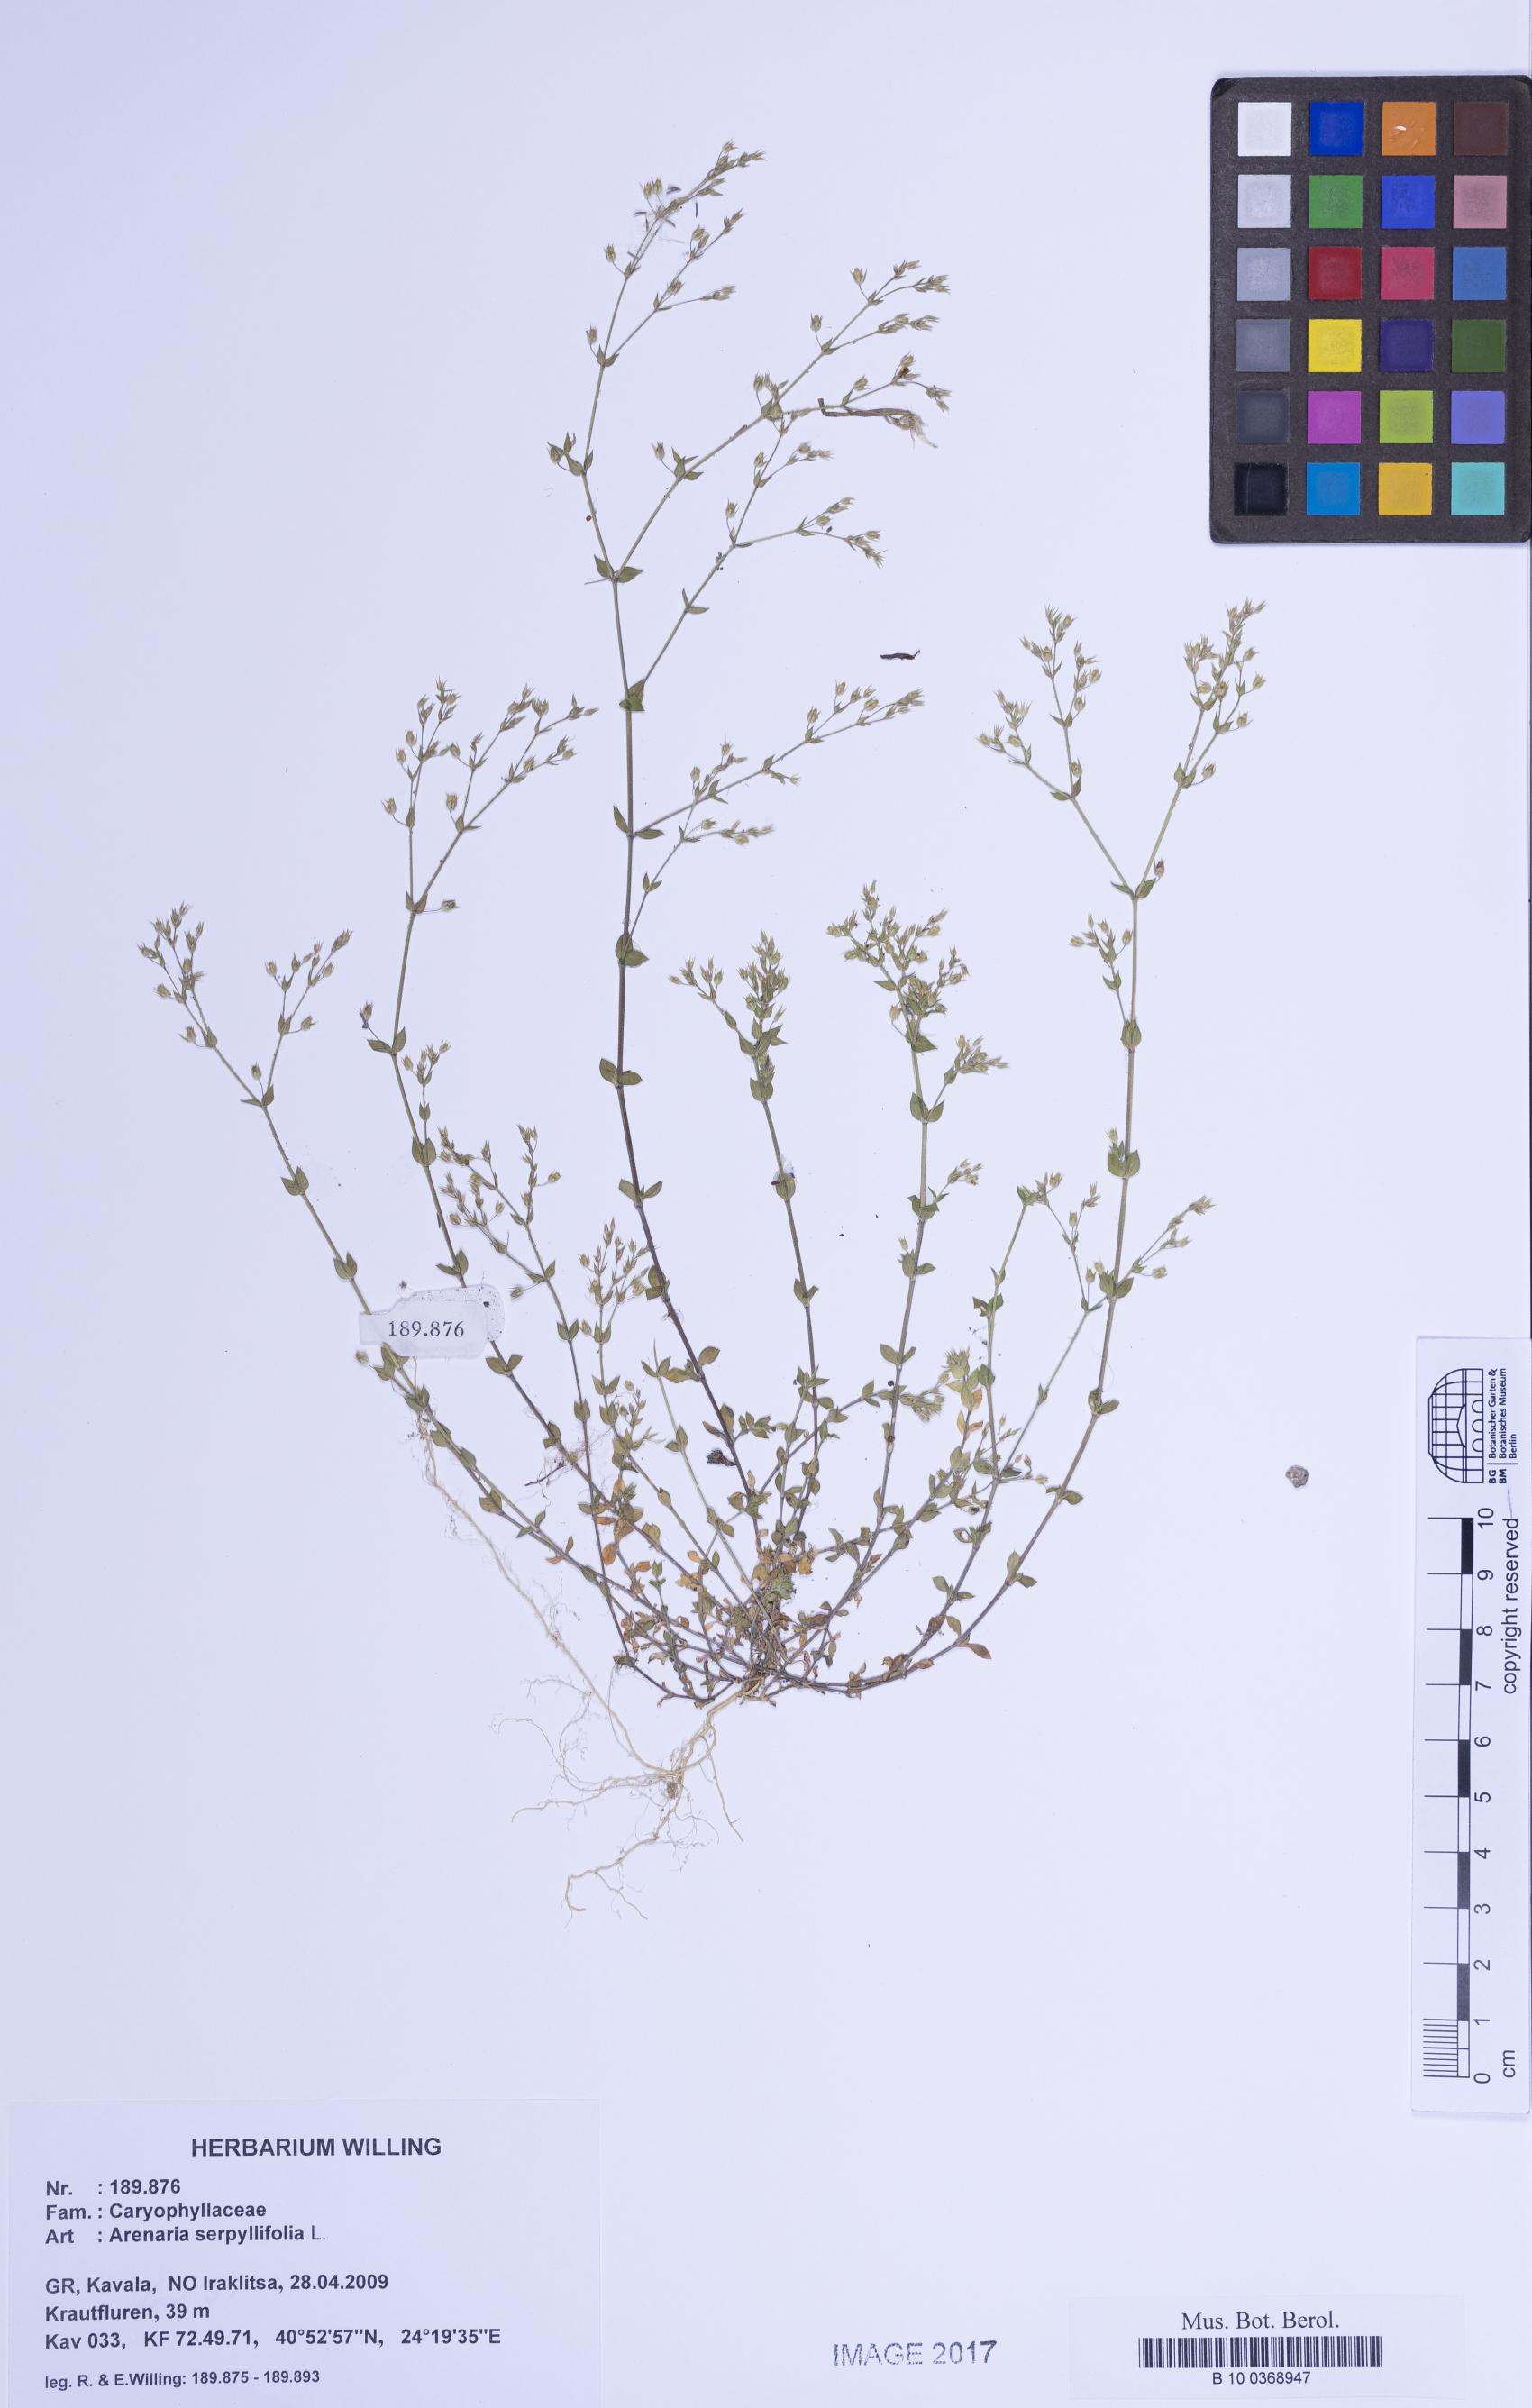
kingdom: Plantae
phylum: Tracheophyta
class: Magnoliopsida
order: Caryophyllales
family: Caryophyllaceae
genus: Arenaria
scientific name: Arenaria serpyllifolia
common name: Thyme-leaved sandwort
